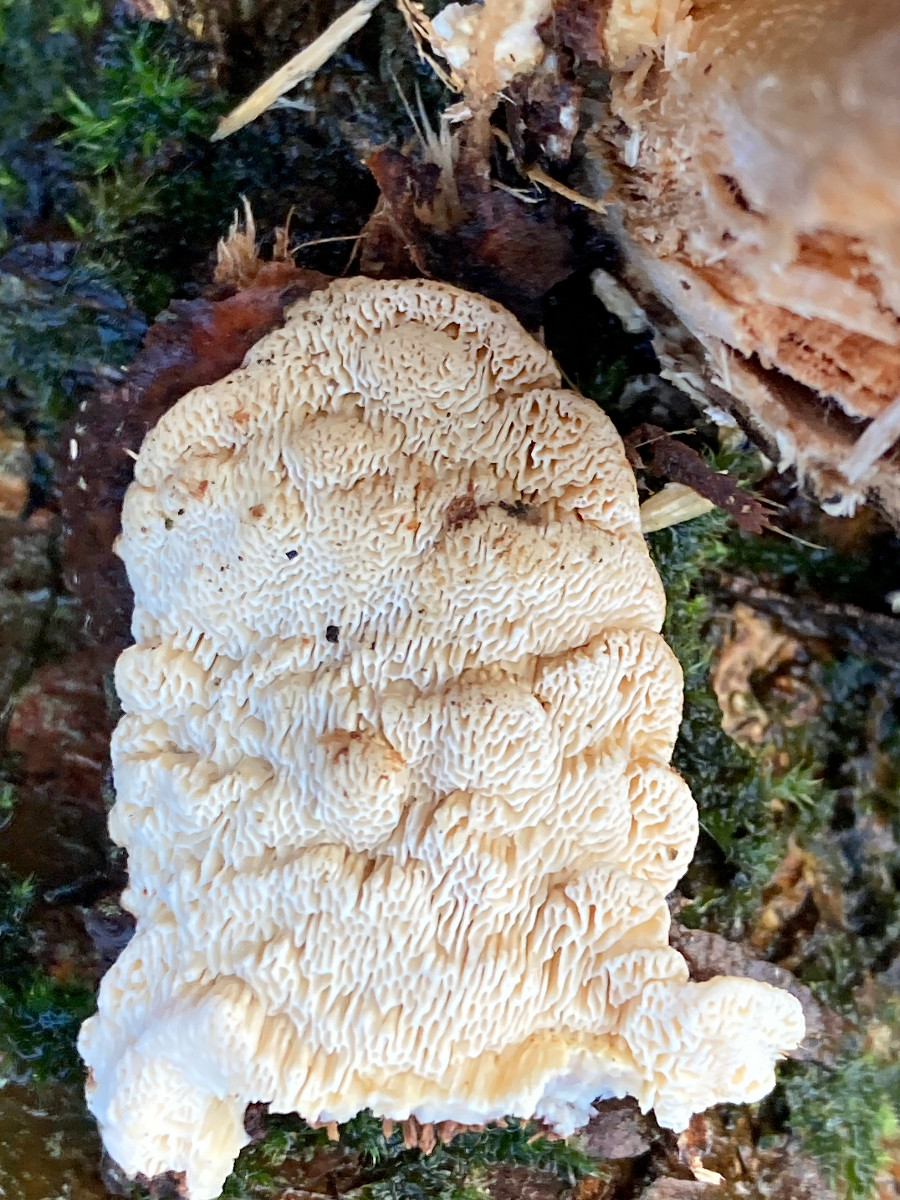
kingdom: Fungi
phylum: Basidiomycota
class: Agaricomycetes
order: Polyporales
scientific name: Polyporales
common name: poresvampordenen
